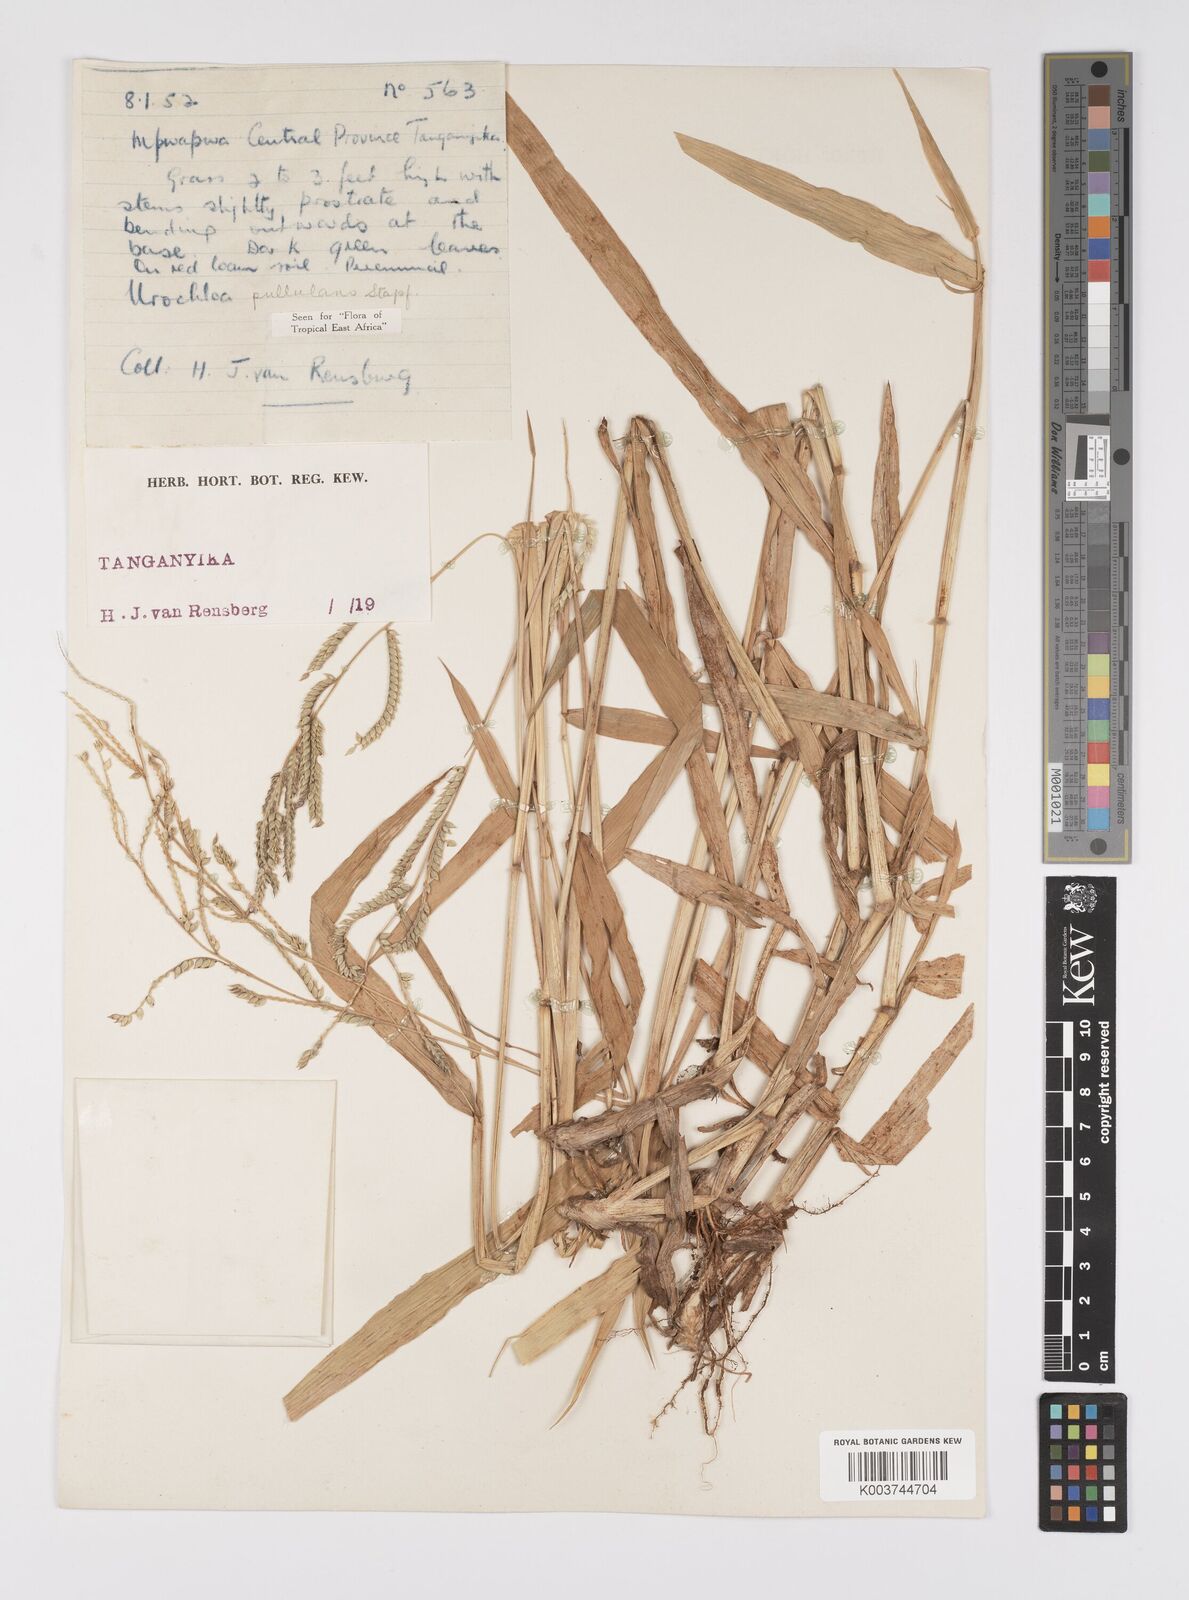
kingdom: Plantae
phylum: Tracheophyta
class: Liliopsida
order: Poales
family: Poaceae
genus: Urochloa
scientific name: Urochloa trichopus
